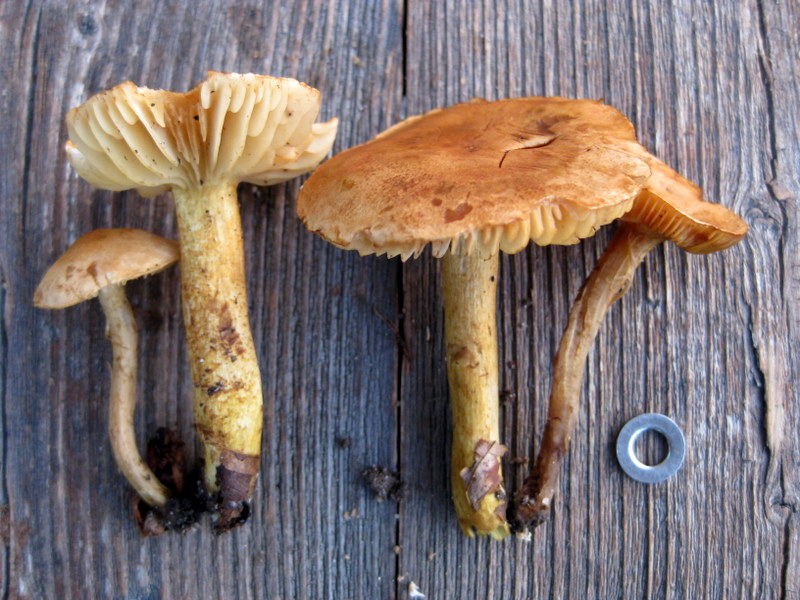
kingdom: Fungi
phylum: Basidiomycota
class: Agaricomycetes
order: Agaricales
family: Tricholomataceae
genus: Tricholoma
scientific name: Tricholoma sulphureum
